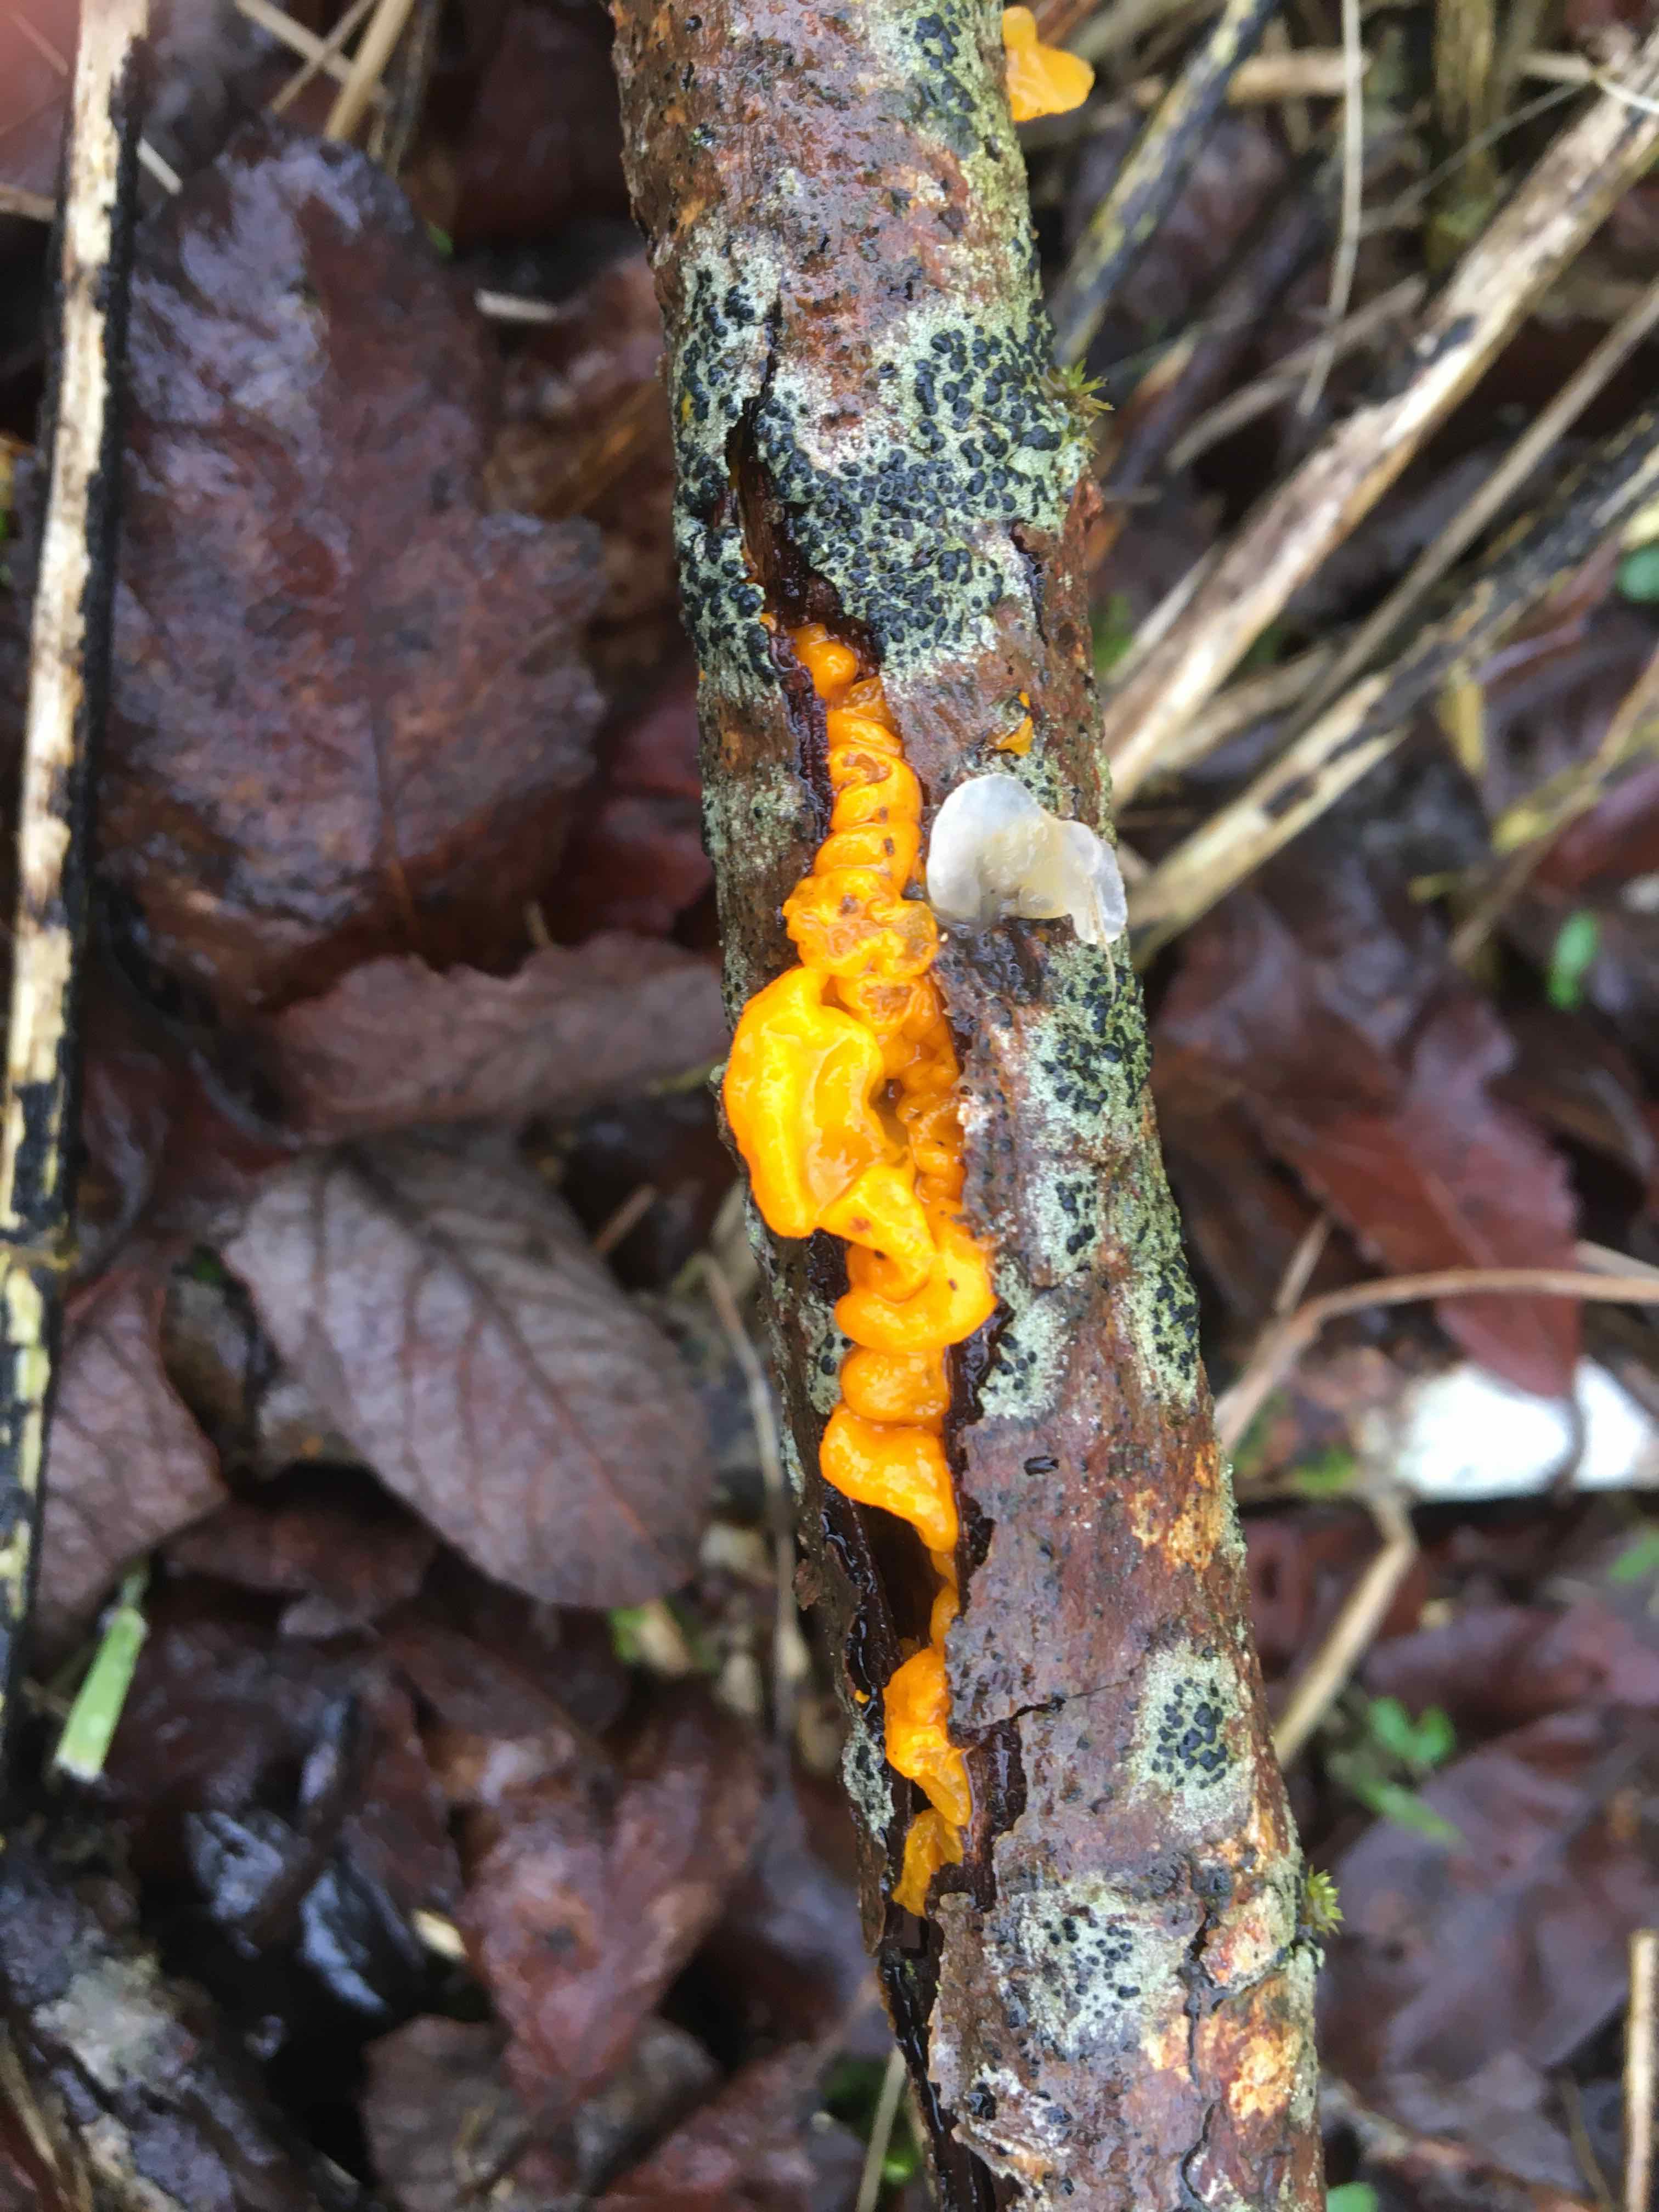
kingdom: Fungi
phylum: Basidiomycota
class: Tremellomycetes
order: Tremellales
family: Tremellaceae
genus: Tremella
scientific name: Tremella mesenterica
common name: gul bævresvamp
